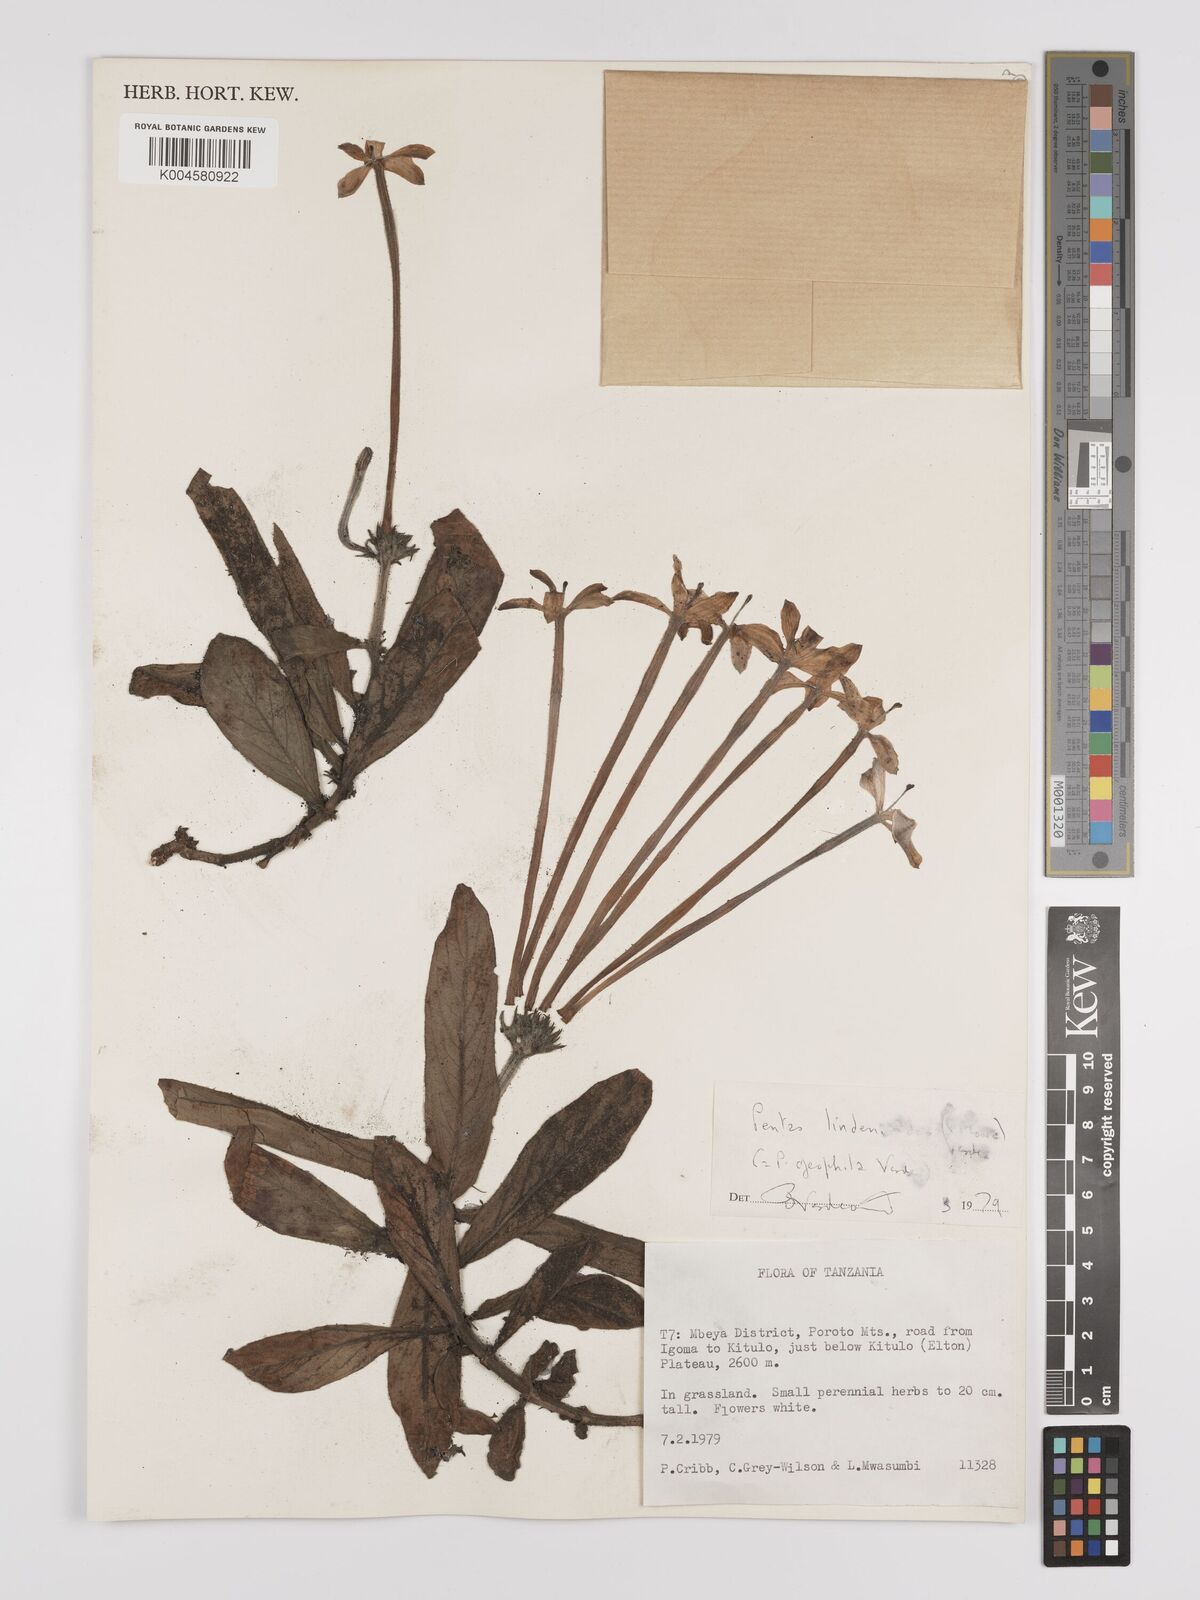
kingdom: Plantae
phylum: Tracheophyta
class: Magnoliopsida
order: Gentianales
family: Rubiaceae
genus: Dolichopentas
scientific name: Dolichopentas lindenioides
